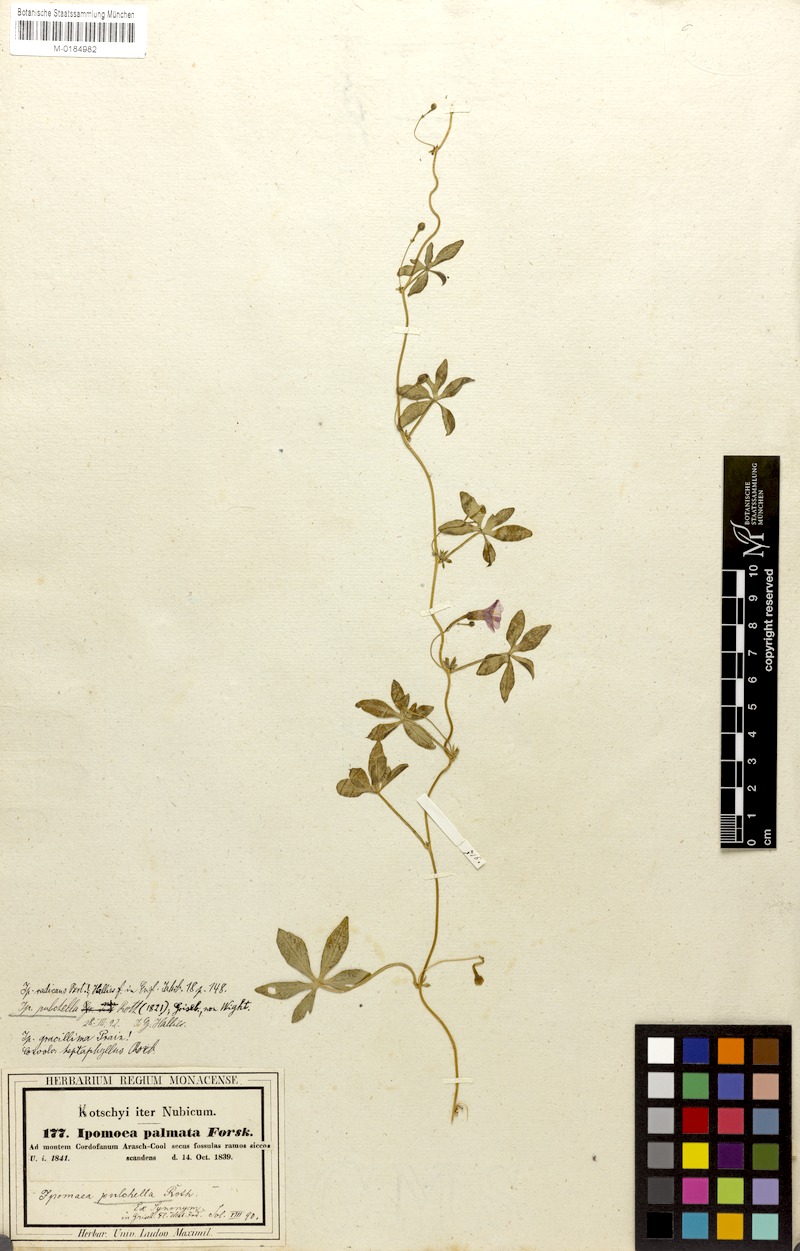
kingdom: Plantae
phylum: Tracheophyta
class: Magnoliopsida
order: Solanales
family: Convolvulaceae
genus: Ipomoea
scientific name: Ipomoea cairica
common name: Mile a minute vine
